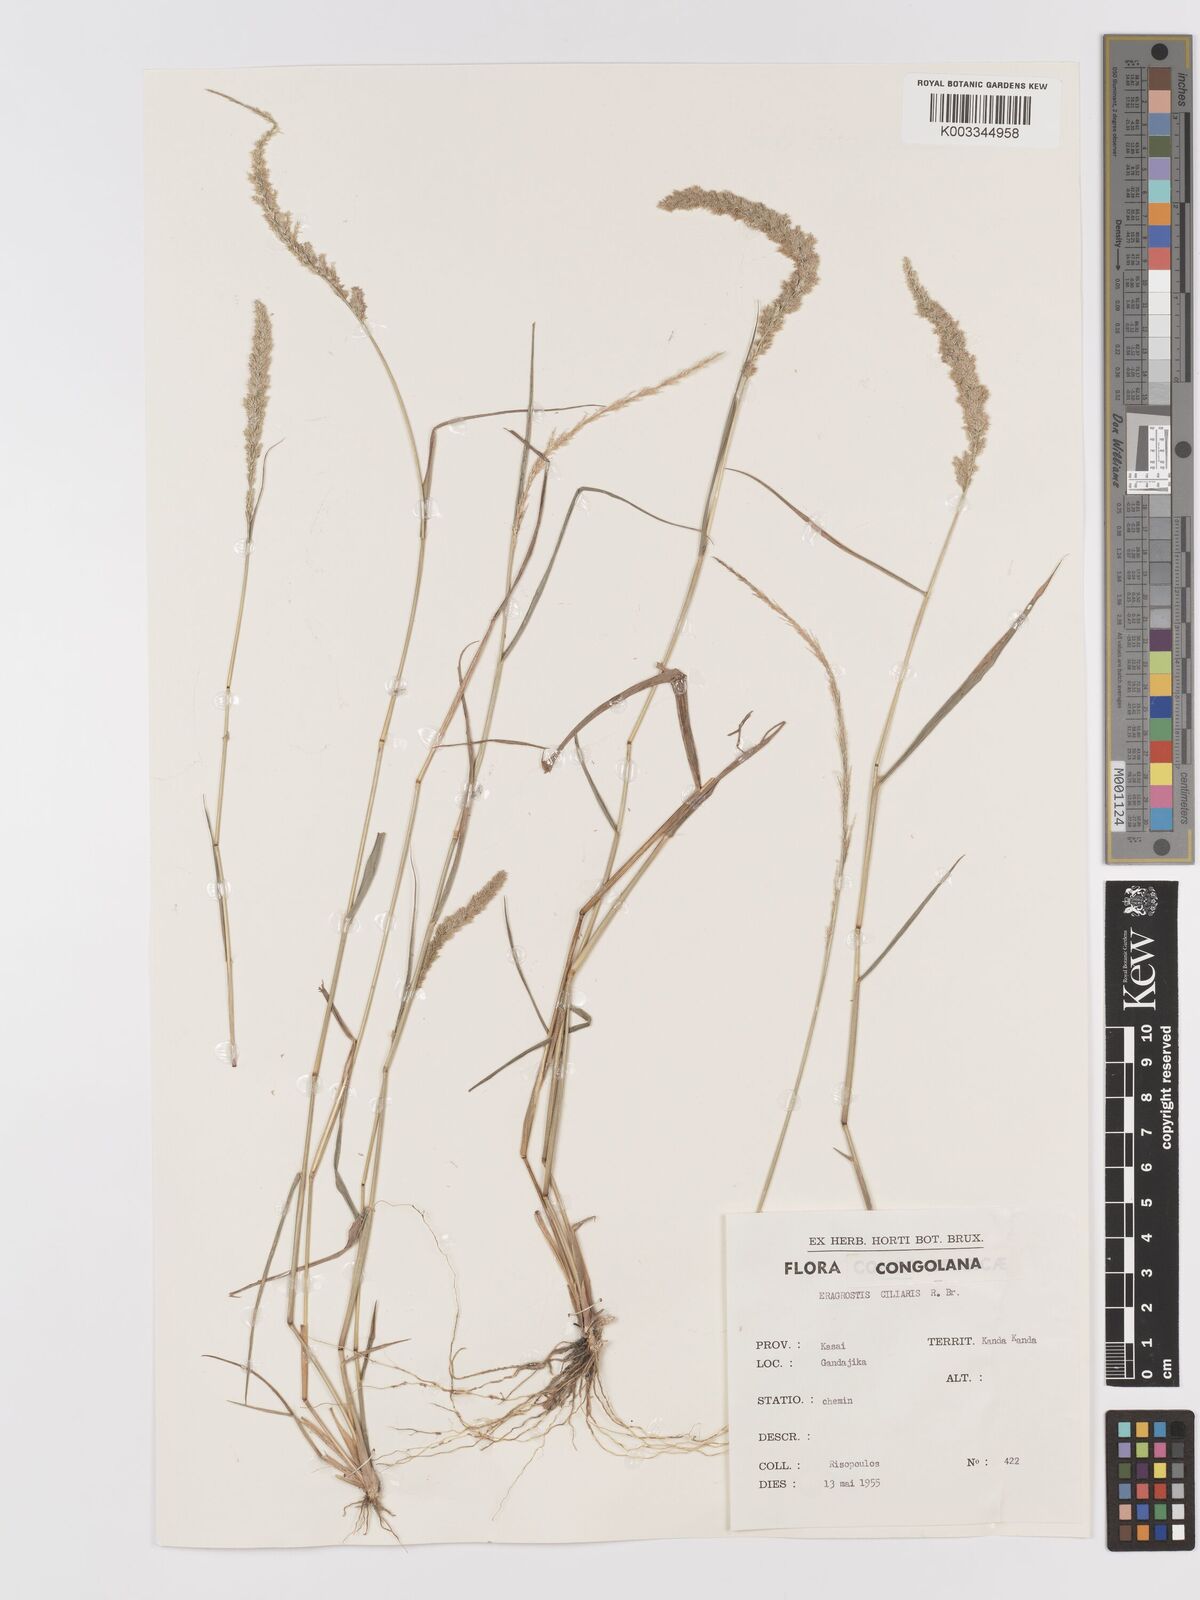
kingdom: Plantae
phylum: Tracheophyta
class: Liliopsida
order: Poales
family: Poaceae
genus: Eragrostis
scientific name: Eragrostis ciliaris
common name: Gophertail lovegrass
